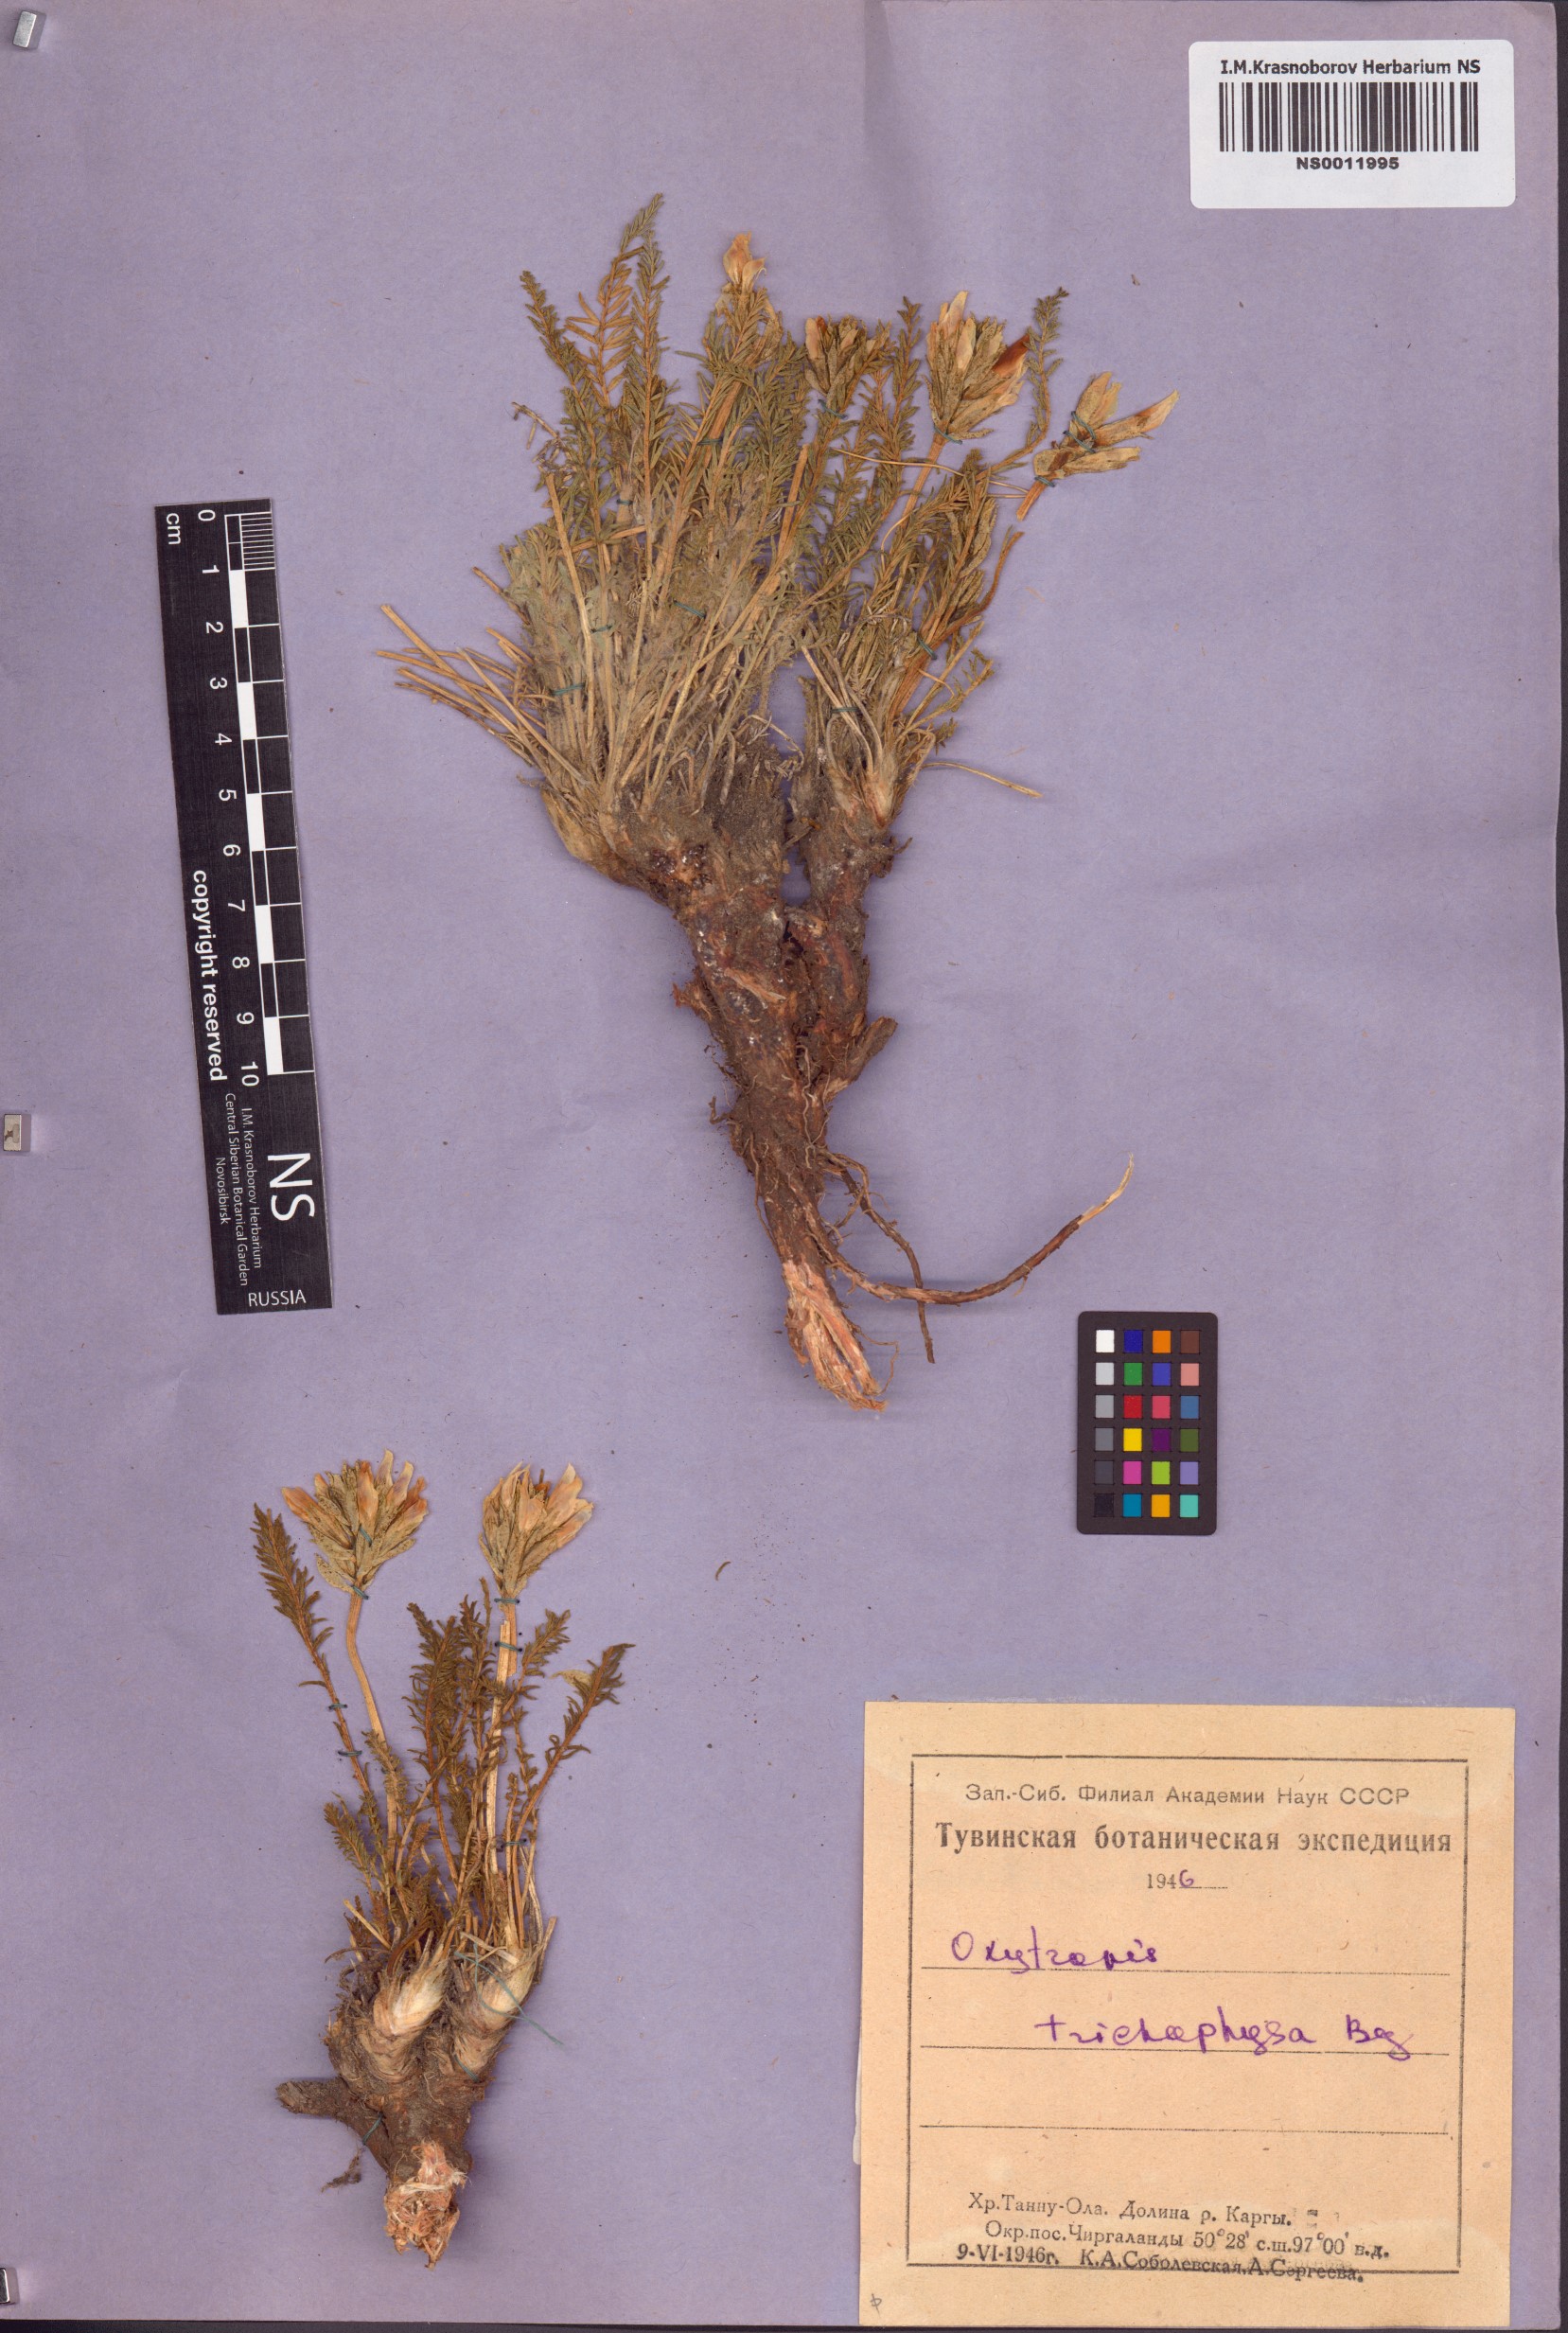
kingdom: Plantae
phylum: Tracheophyta
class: Magnoliopsida
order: Fabales
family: Fabaceae
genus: Oxytropis
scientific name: Oxytropis trichophysa
